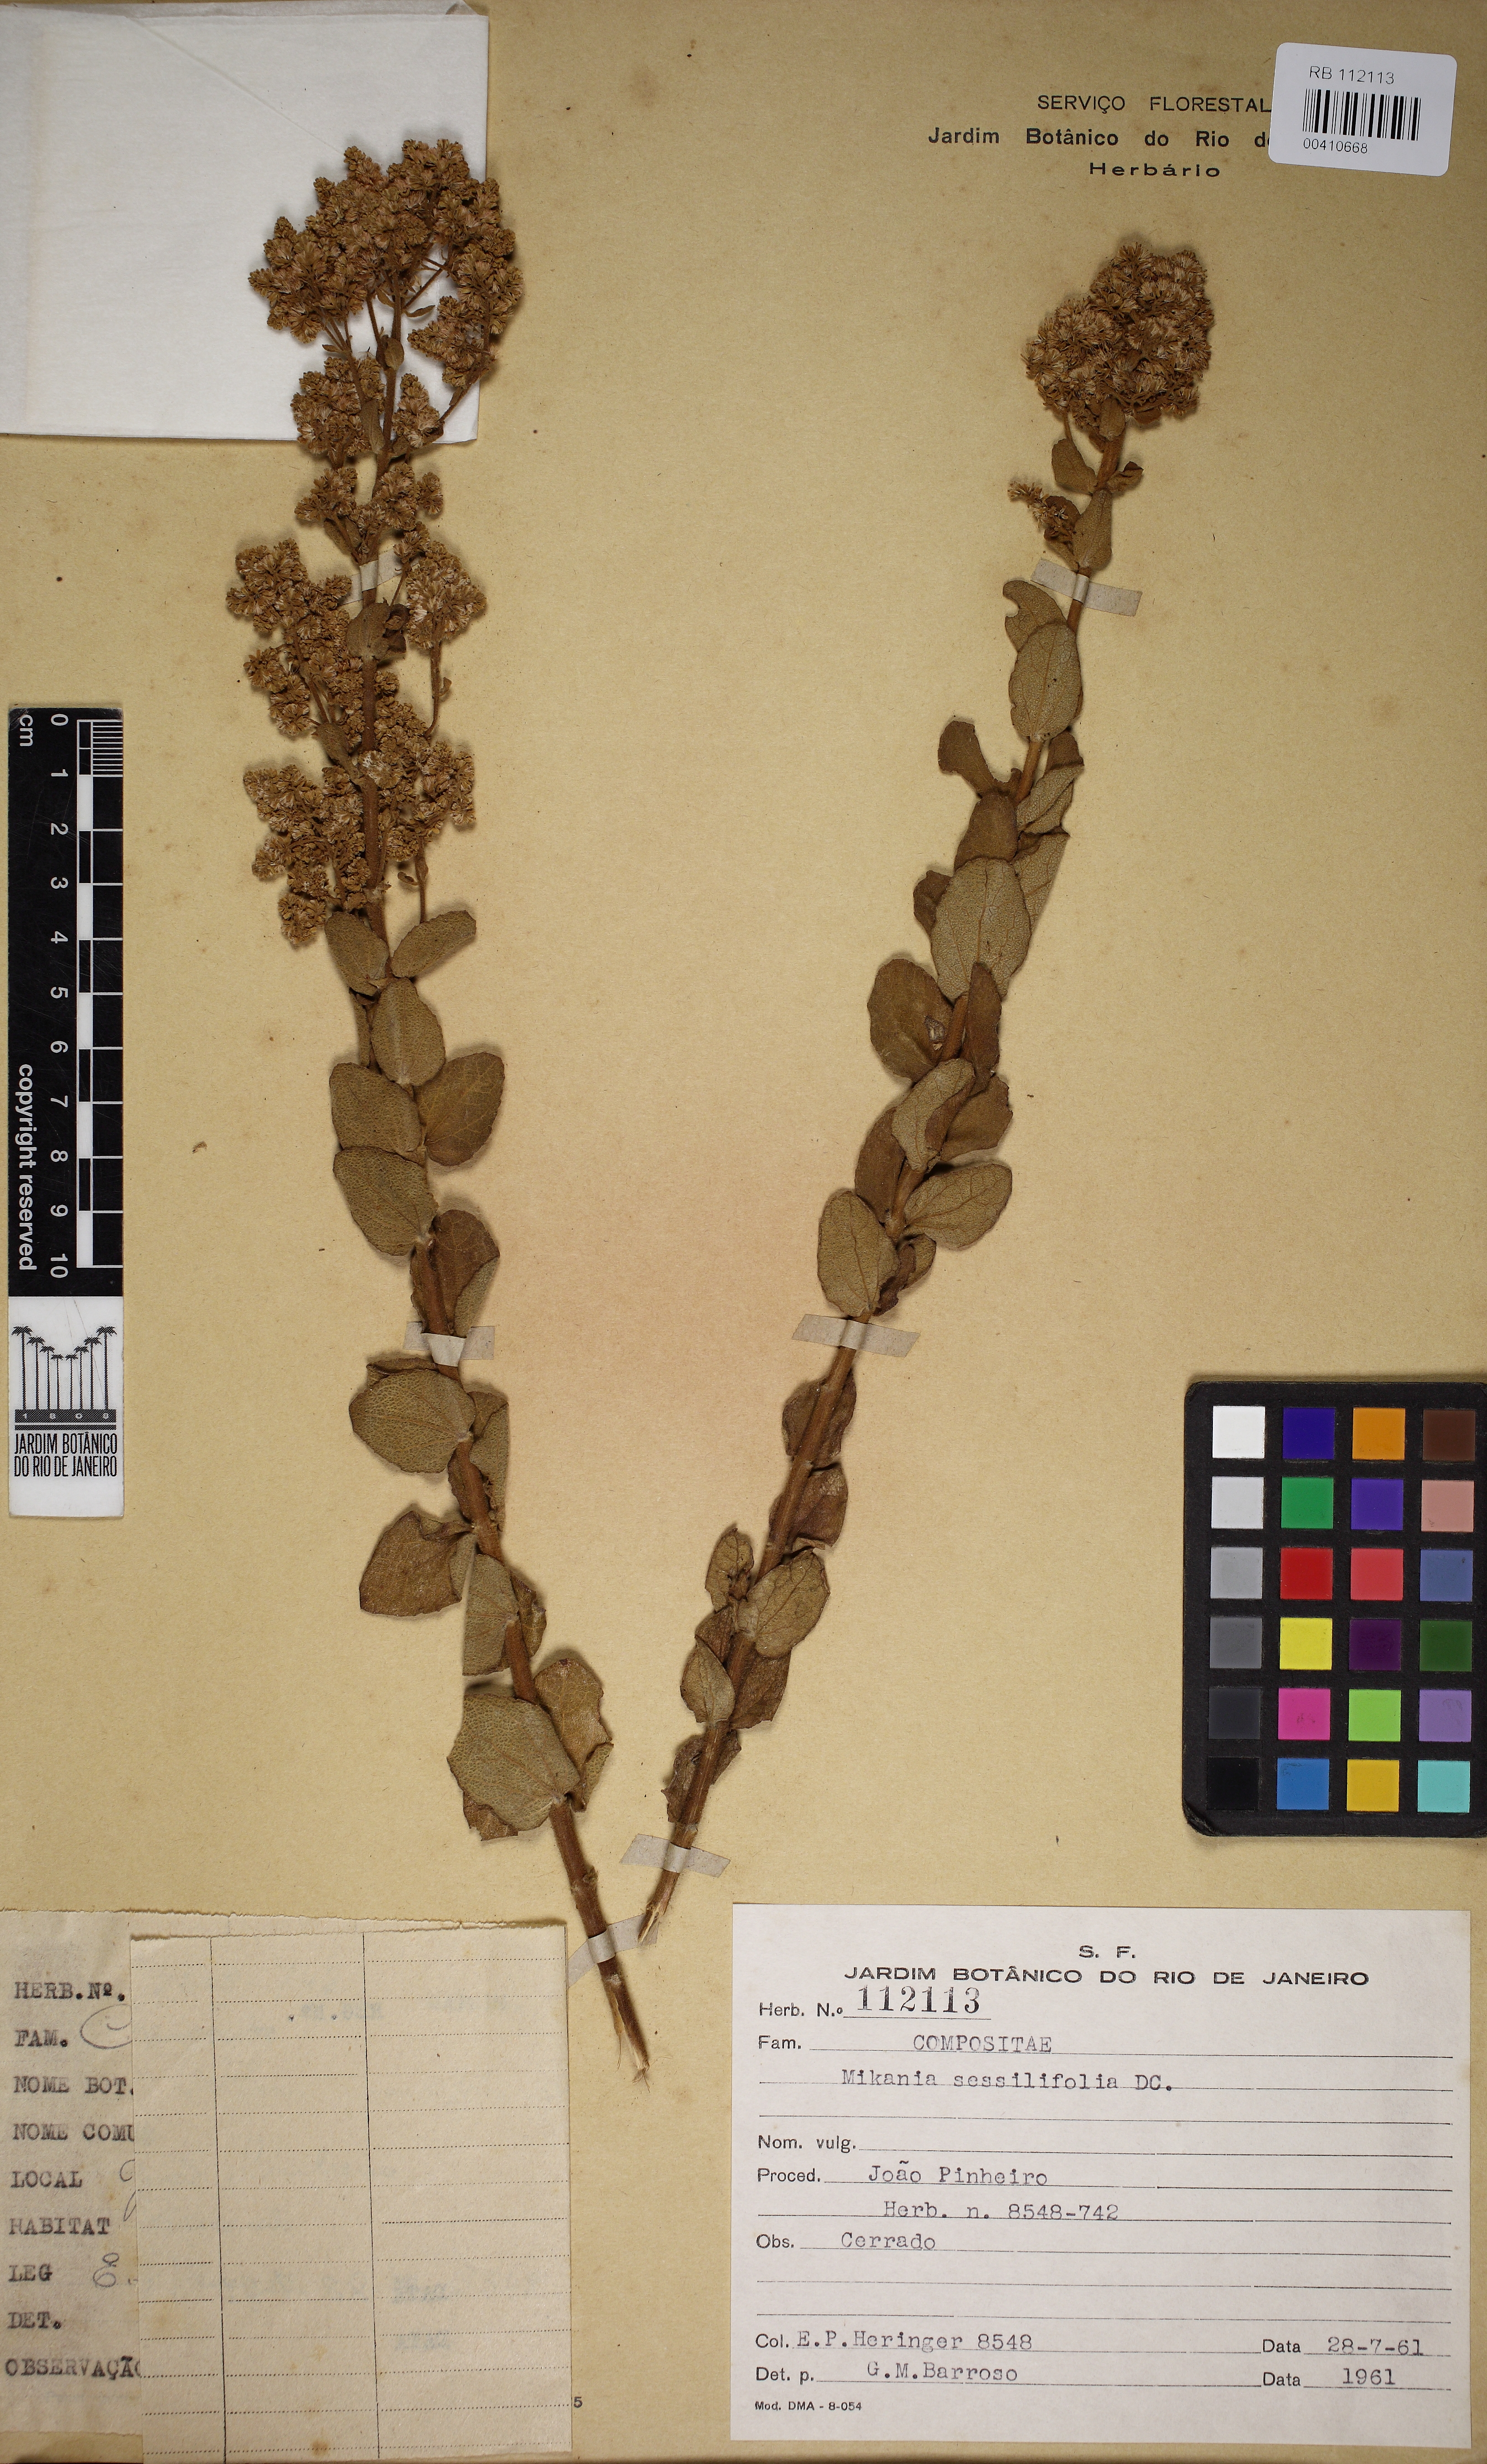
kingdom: Plantae
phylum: Tracheophyta
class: Magnoliopsida
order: Asterales
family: Asteraceae
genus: Mikania
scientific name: Mikania sessilifolia
